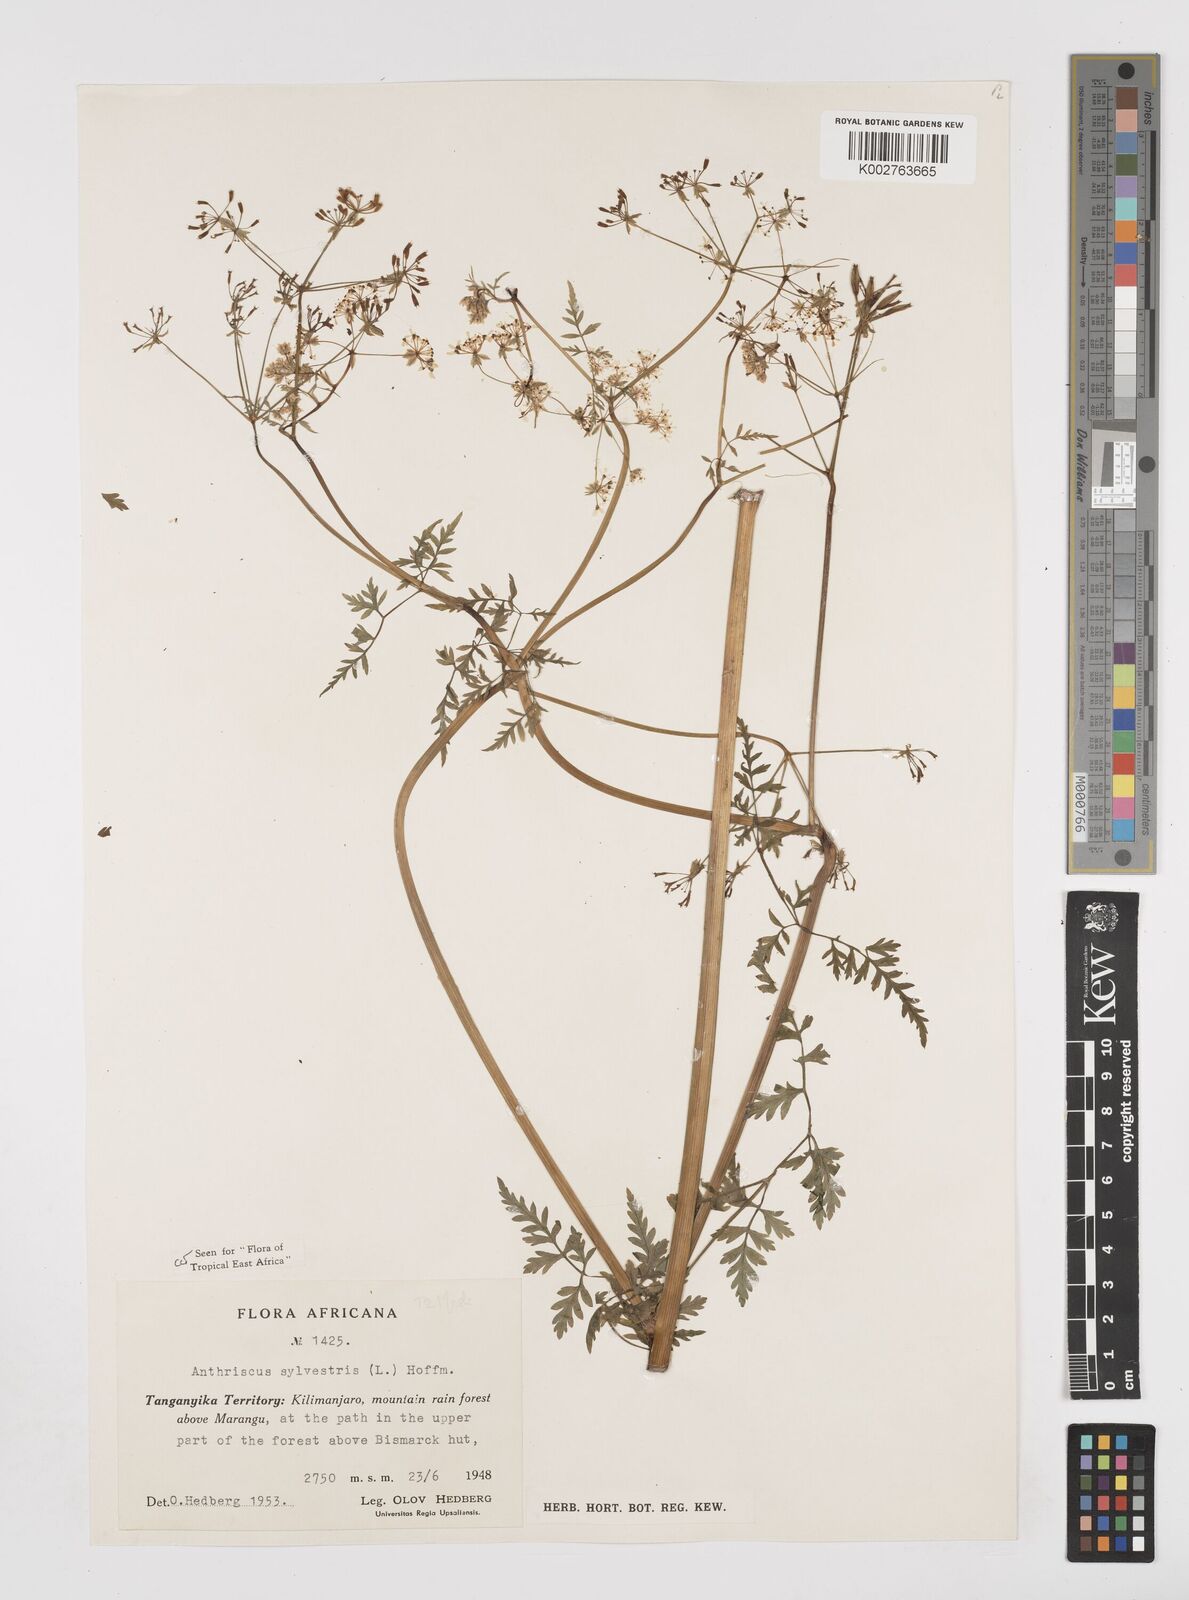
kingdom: Plantae
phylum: Tracheophyta
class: Magnoliopsida
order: Apiales
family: Apiaceae
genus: Anthriscus
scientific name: Anthriscus sylvestris
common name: Cow parsley
